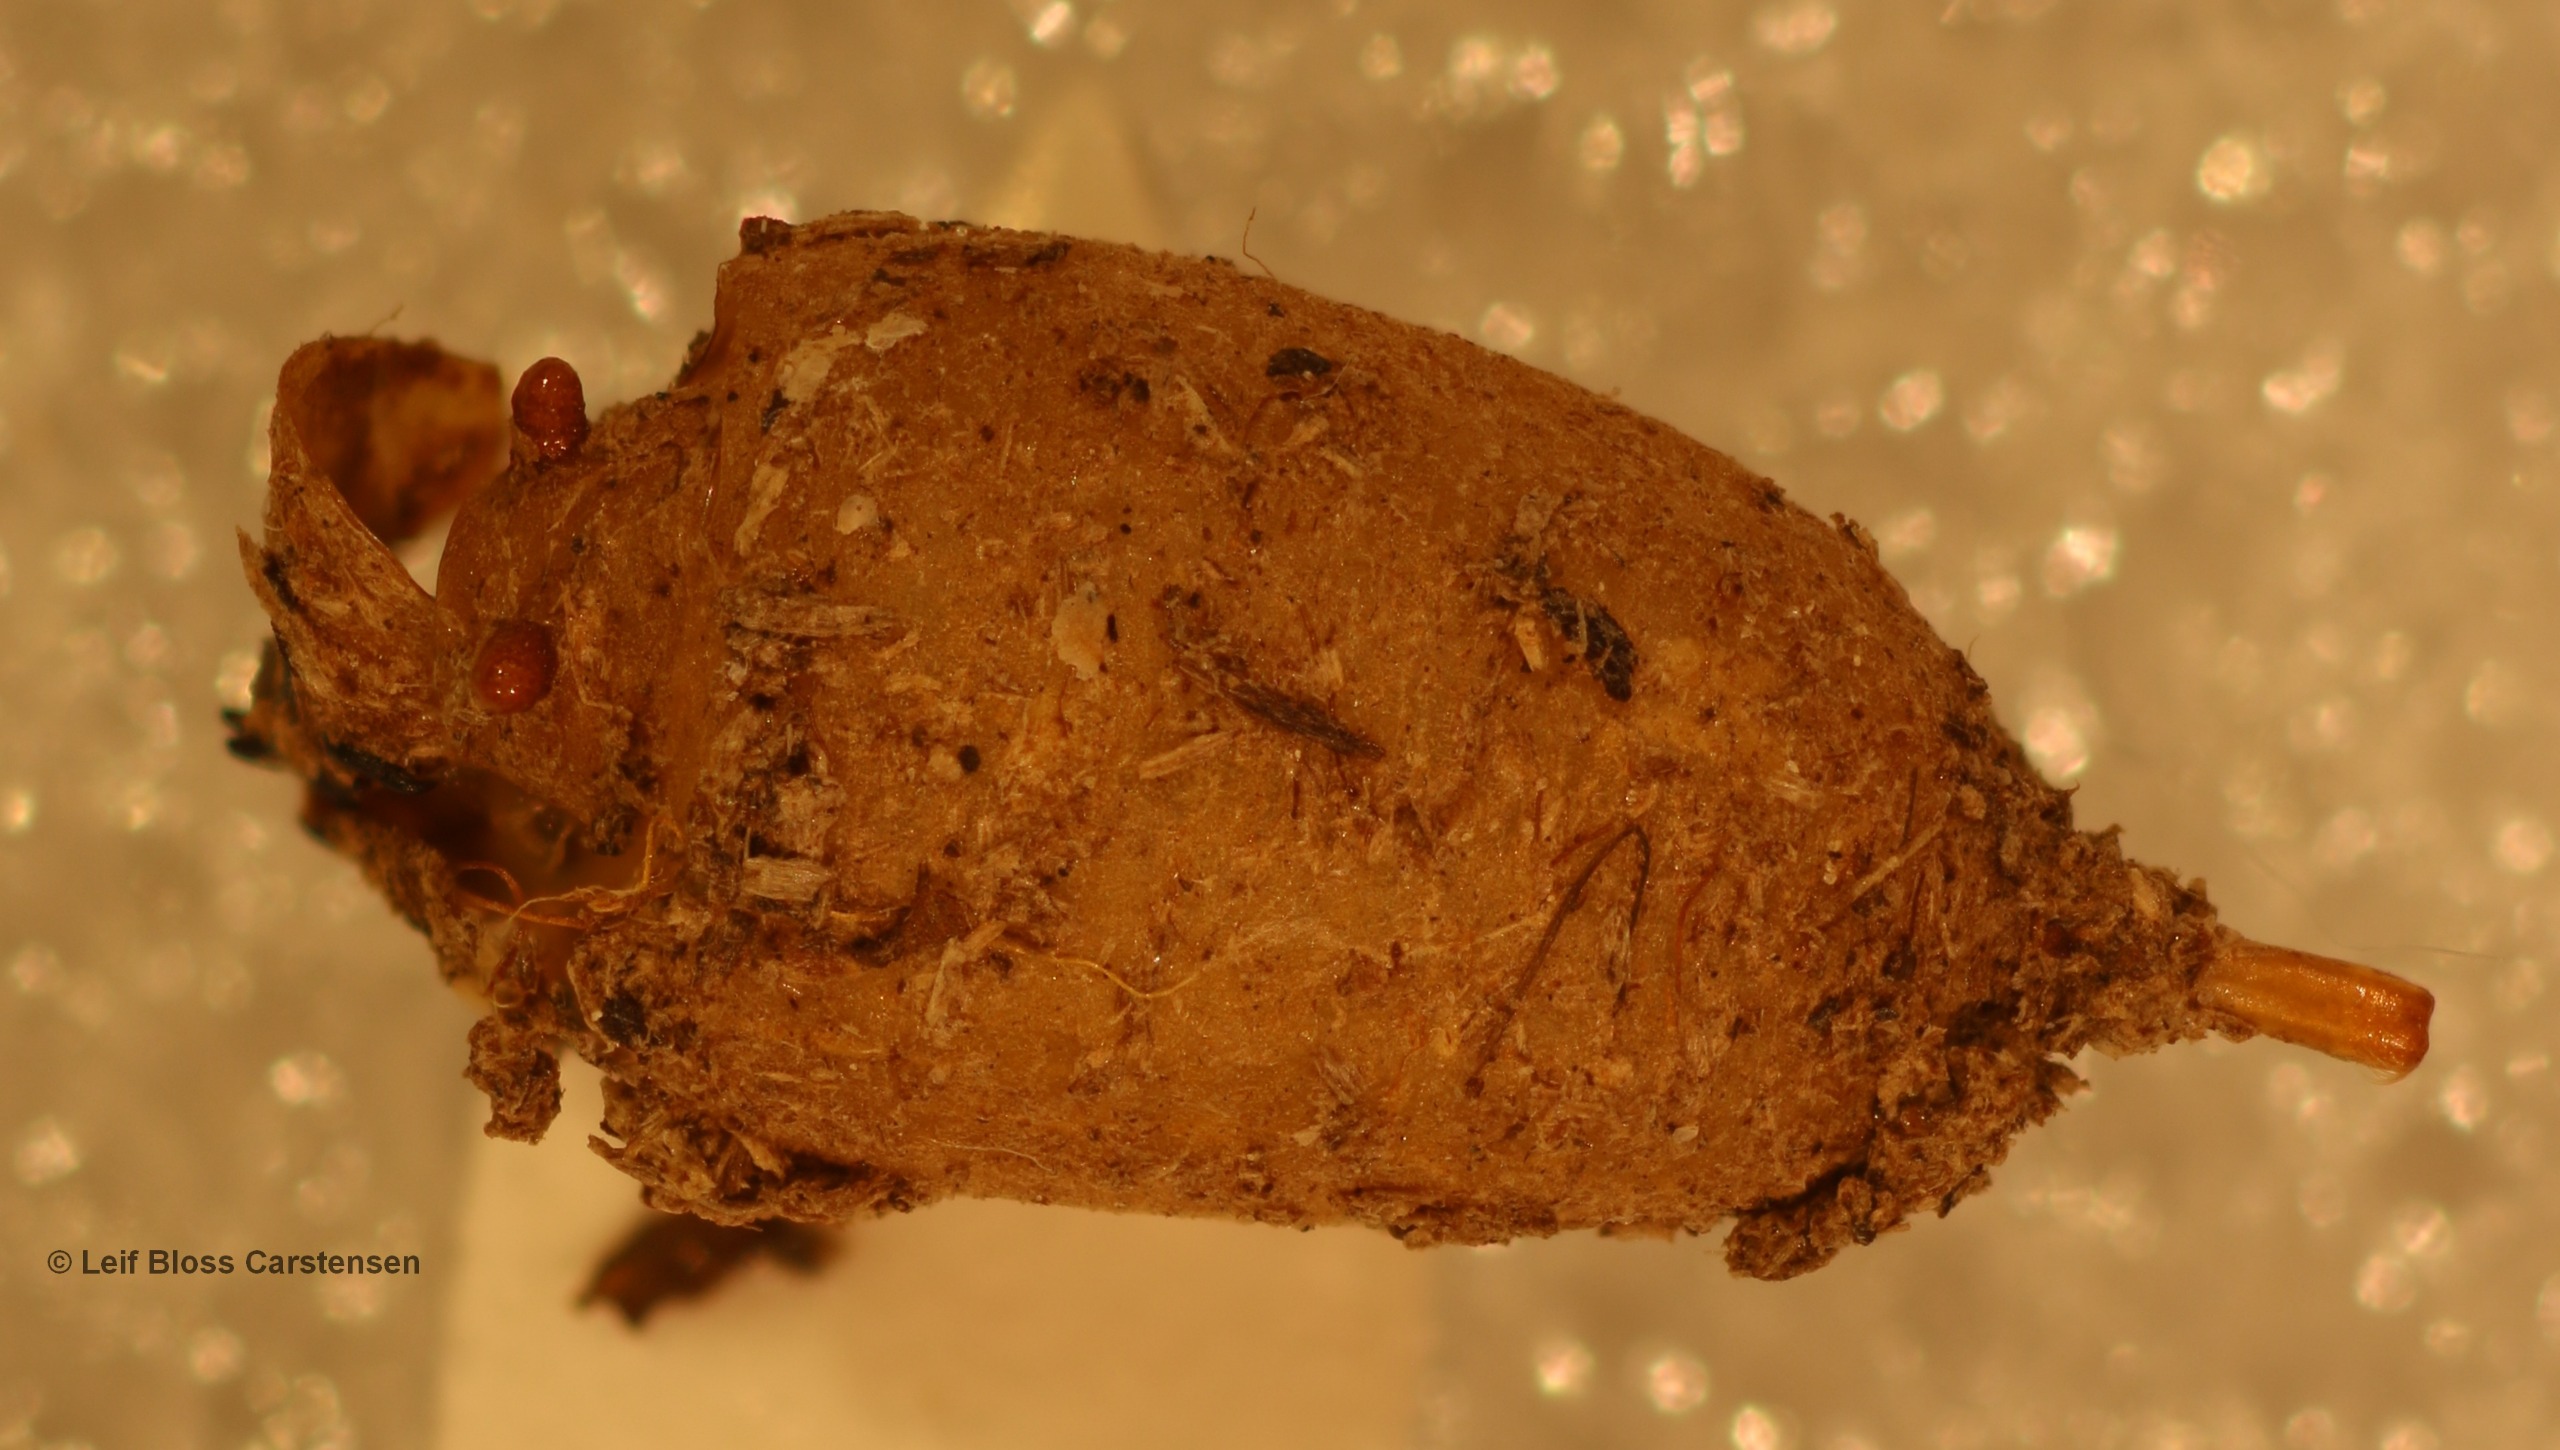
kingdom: Animalia
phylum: Arthropoda
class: Insecta
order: Diptera
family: Syrphidae
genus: Criorhina
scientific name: Criorhina asilica
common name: Bi-pelssvirreflue
